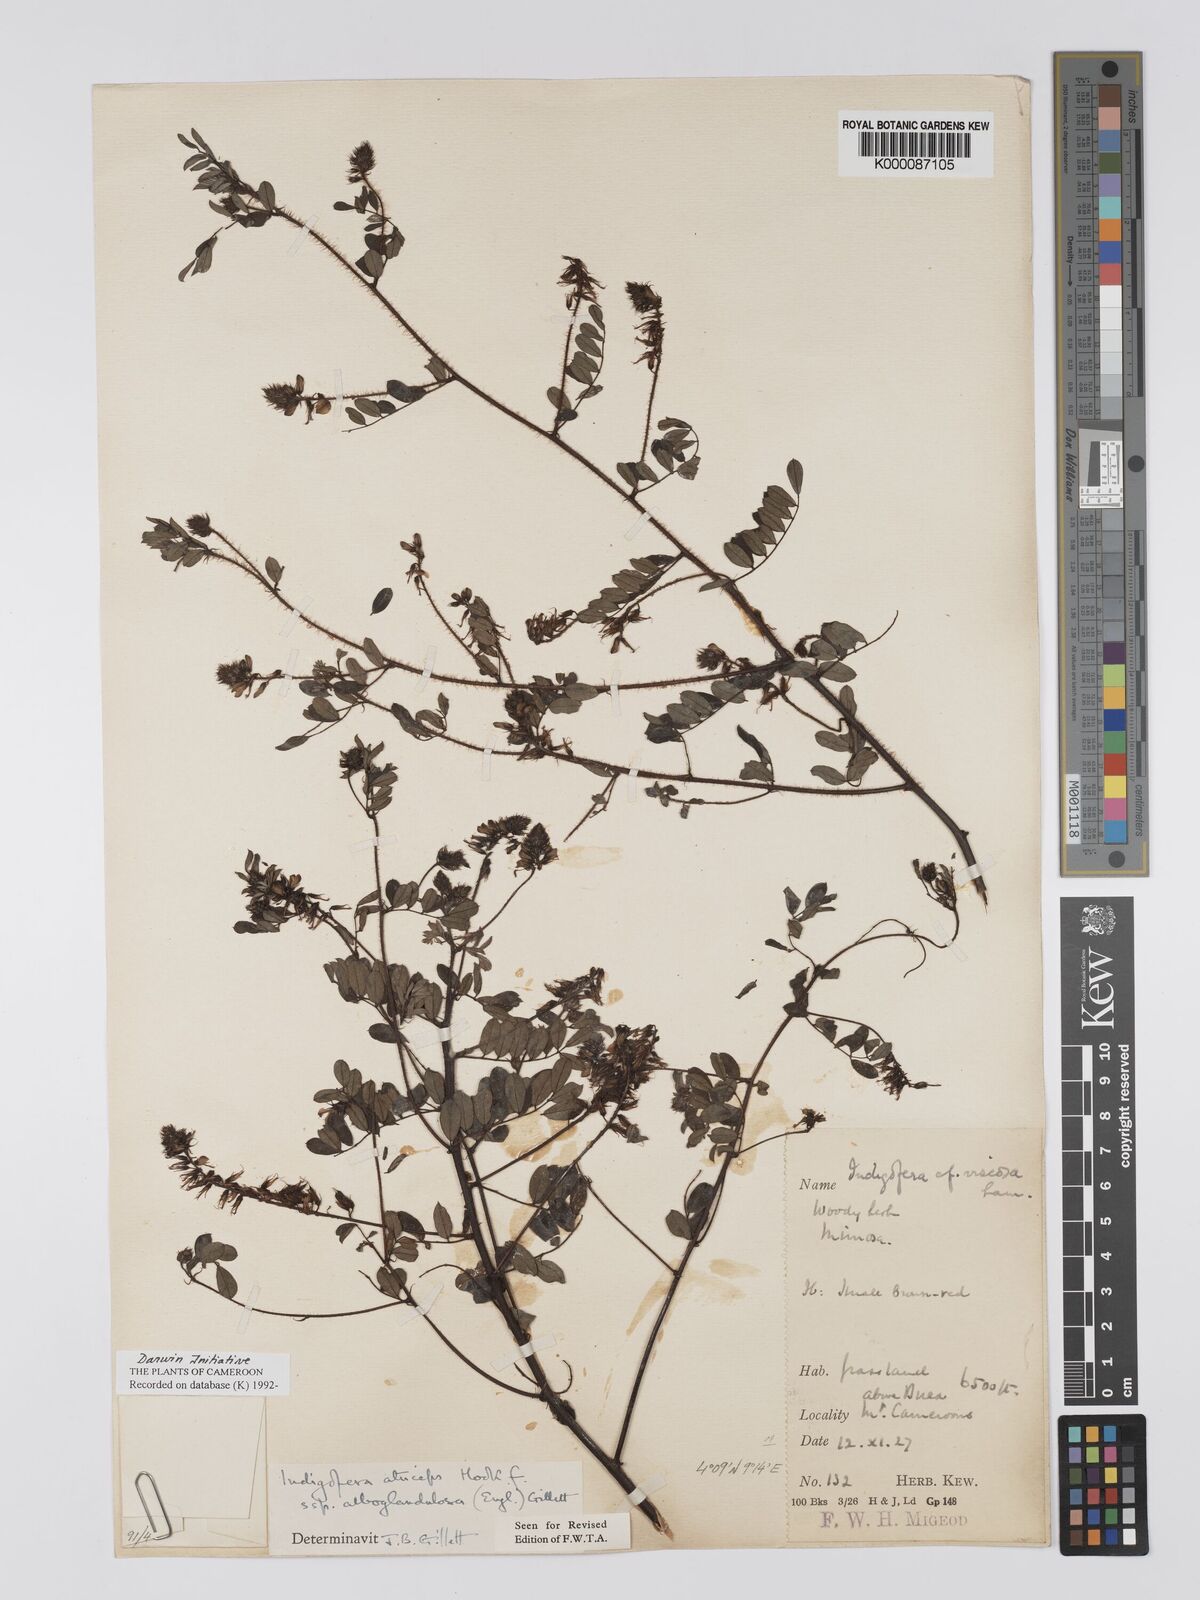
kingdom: Plantae
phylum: Tracheophyta
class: Magnoliopsida
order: Fabales
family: Fabaceae
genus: Indigofera
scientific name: Indigofera atriceps
